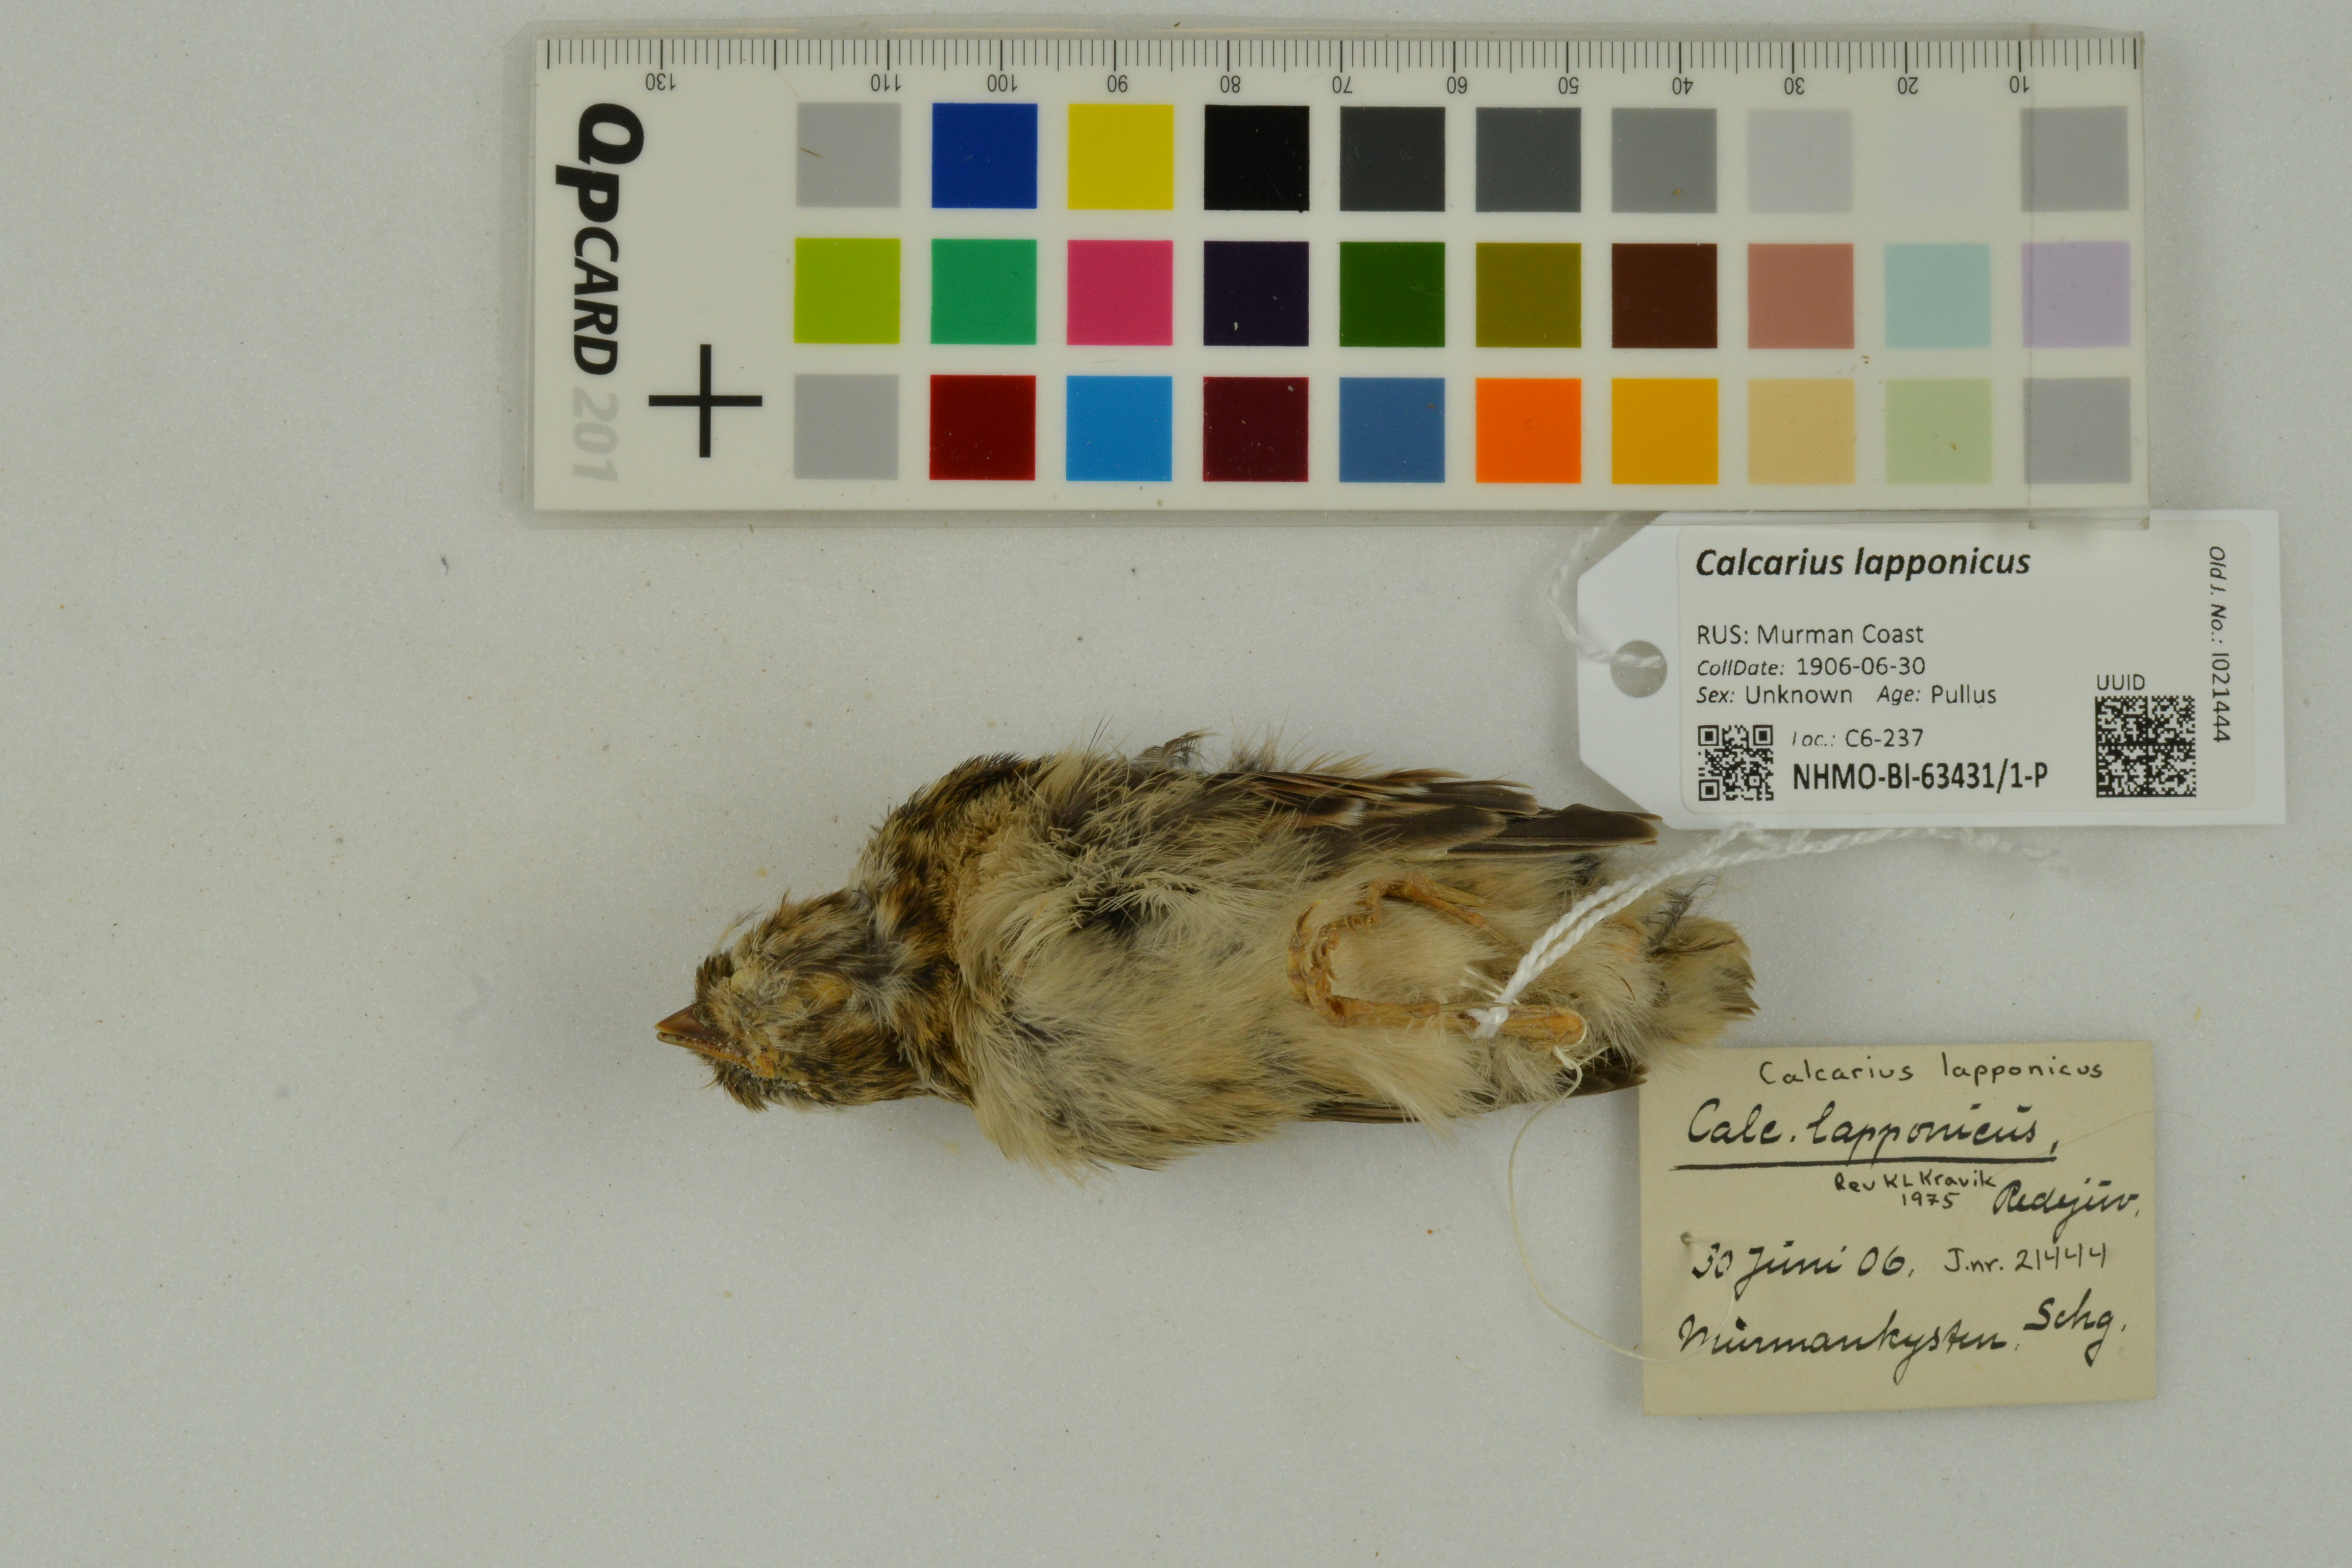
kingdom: Animalia
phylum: Chordata
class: Aves
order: Passeriformes
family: Calcariidae
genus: Calcarius
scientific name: Calcarius lapponicus
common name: Lapland longspur
